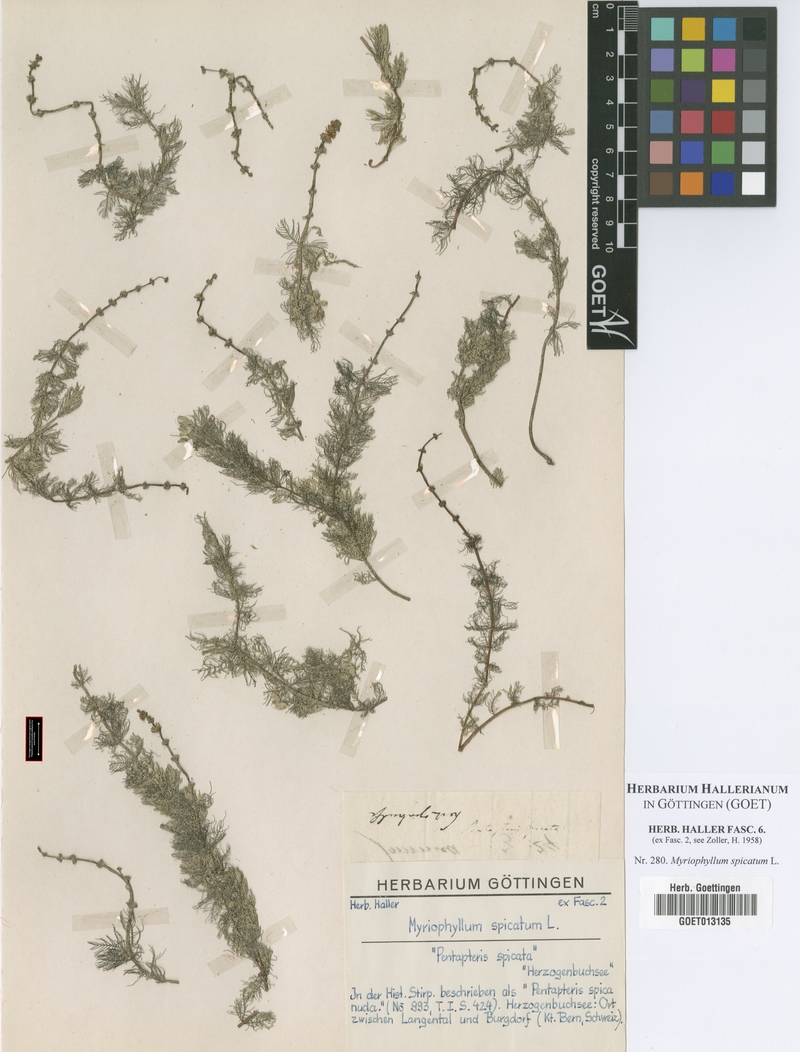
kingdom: Plantae
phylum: Tracheophyta
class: Magnoliopsida
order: Saxifragales
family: Haloragaceae
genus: Myriophyllum
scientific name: Myriophyllum spicatum
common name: Spiked water-milfoil
